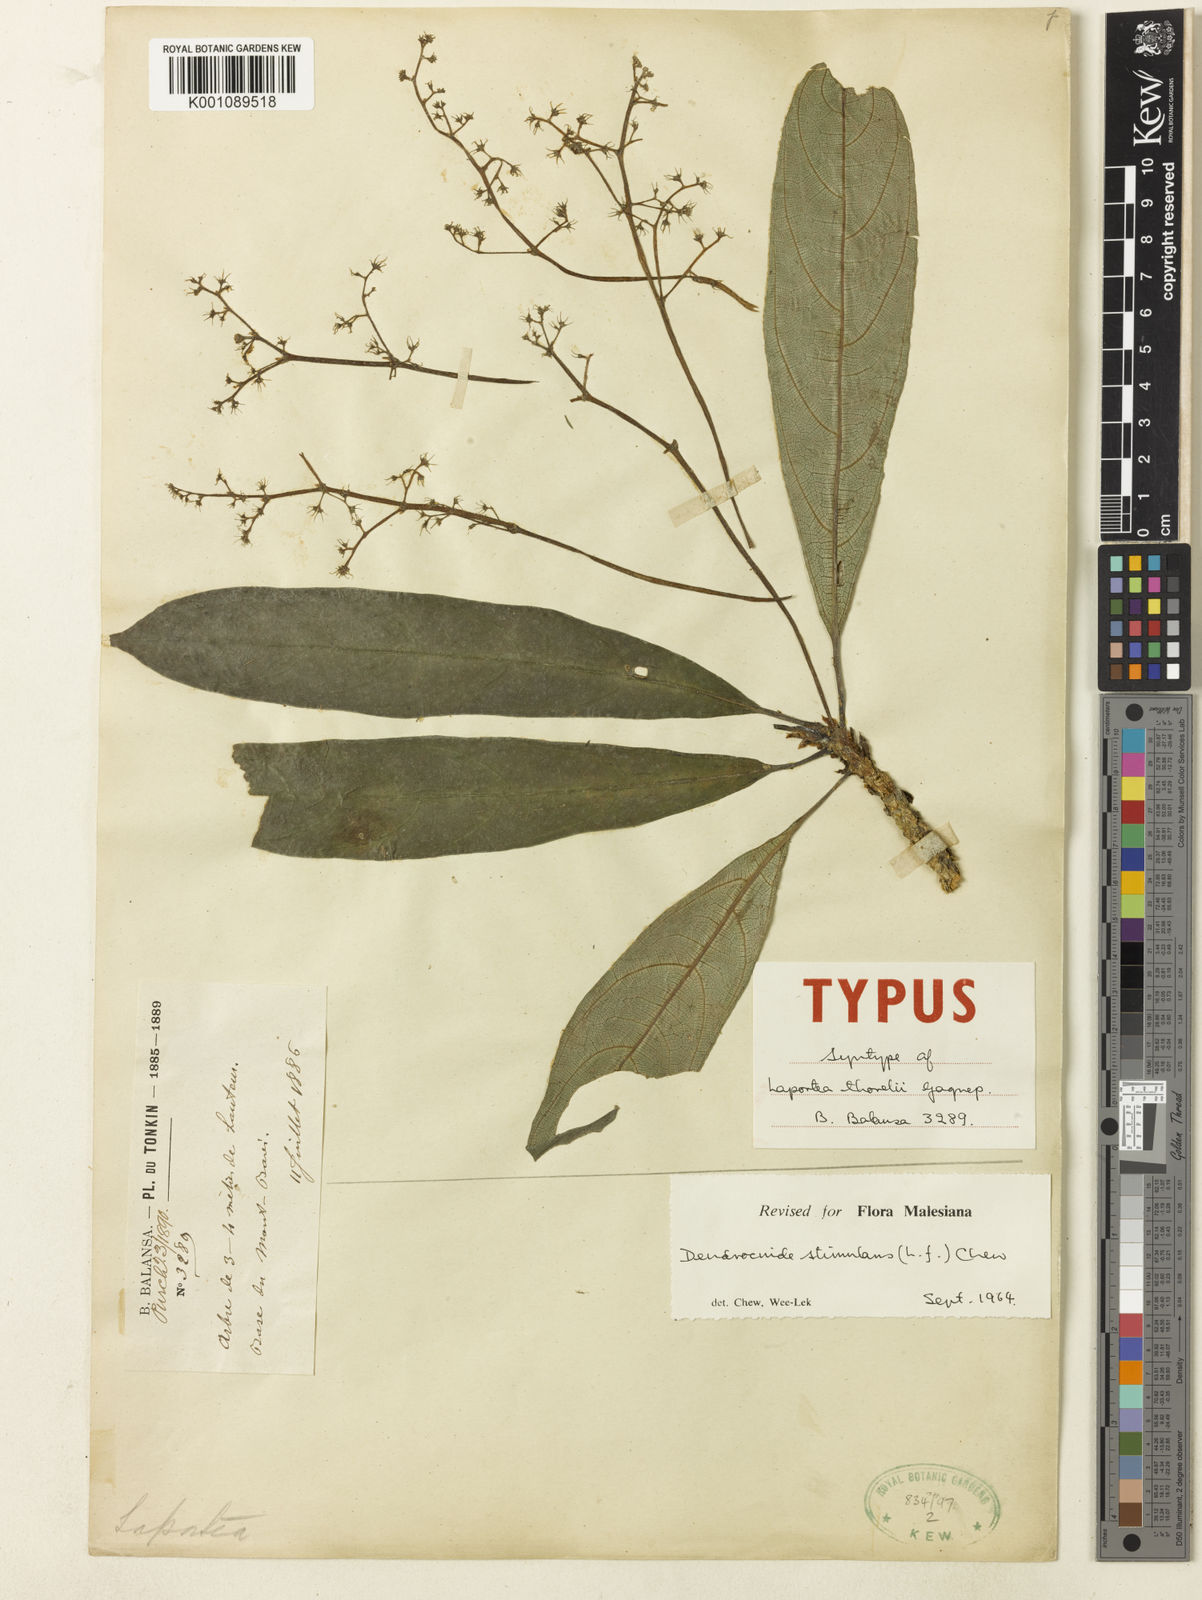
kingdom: Plantae
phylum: Tracheophyta
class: Magnoliopsida
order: Rosales
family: Urticaceae
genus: Dendrocnide
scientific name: Dendrocnide stimulans
